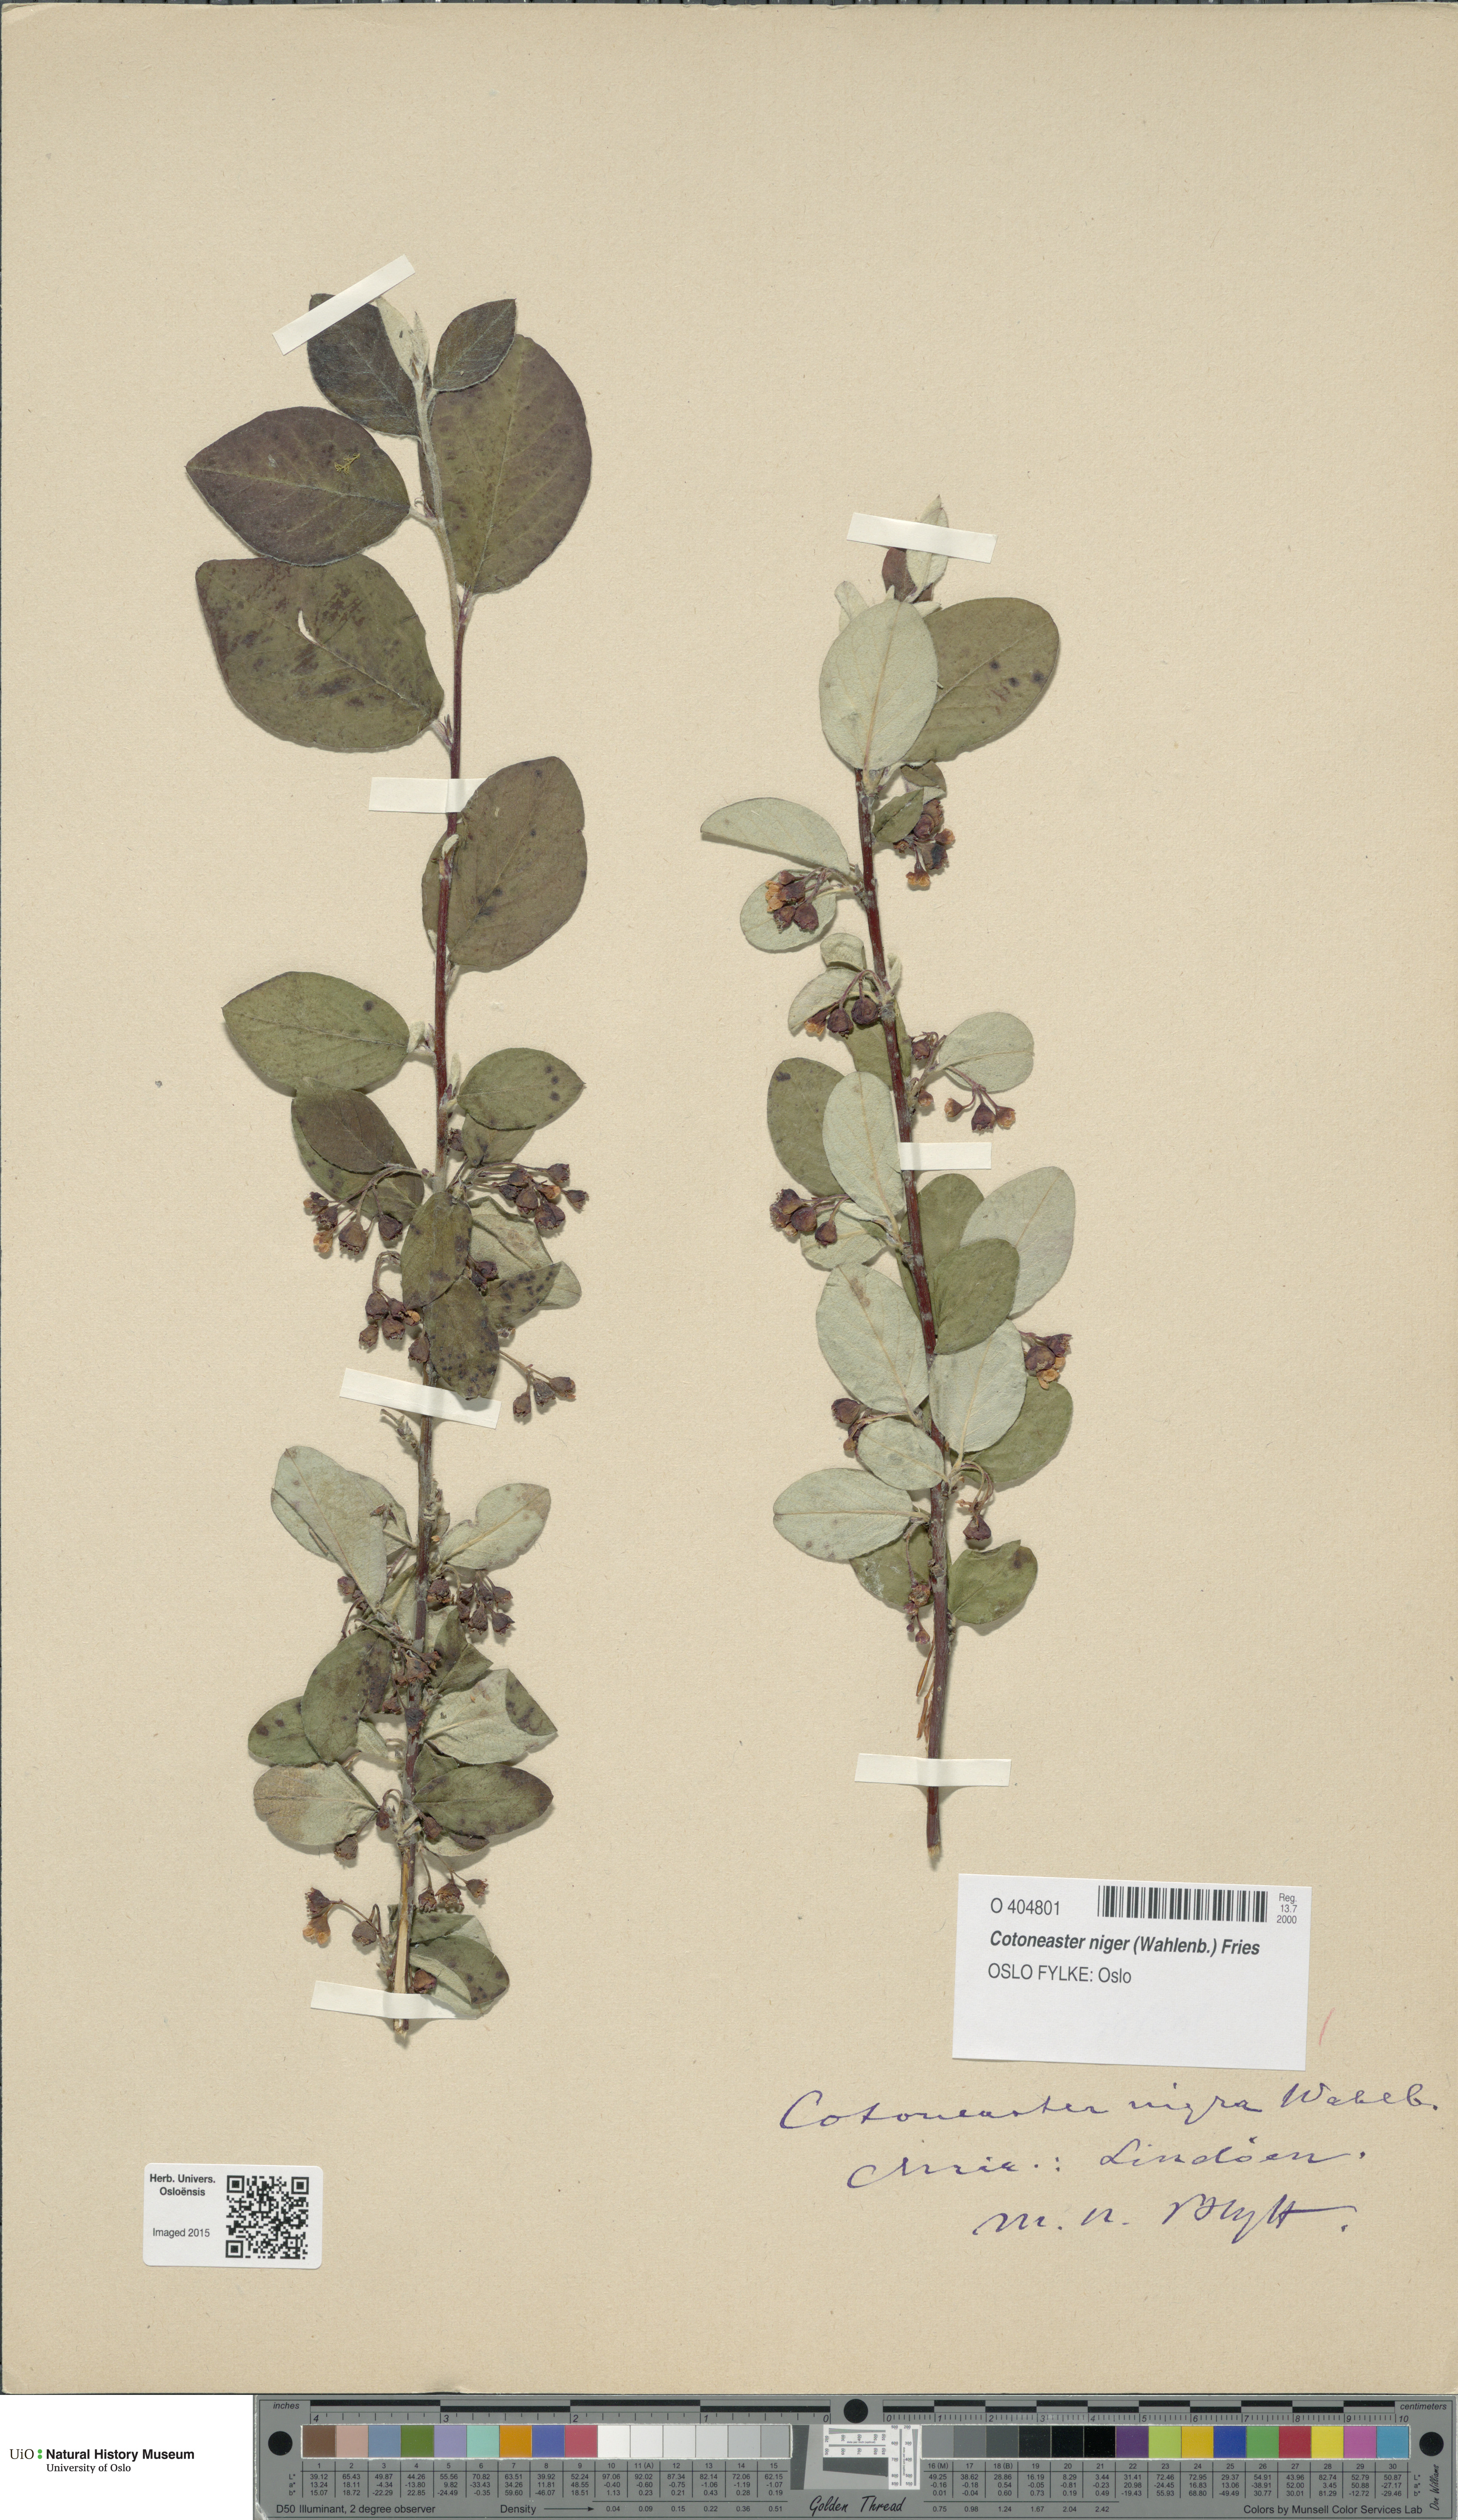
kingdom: Plantae
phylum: Tracheophyta
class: Magnoliopsida
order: Rosales
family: Rosaceae
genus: Cotoneaster
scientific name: Cotoneaster niger
